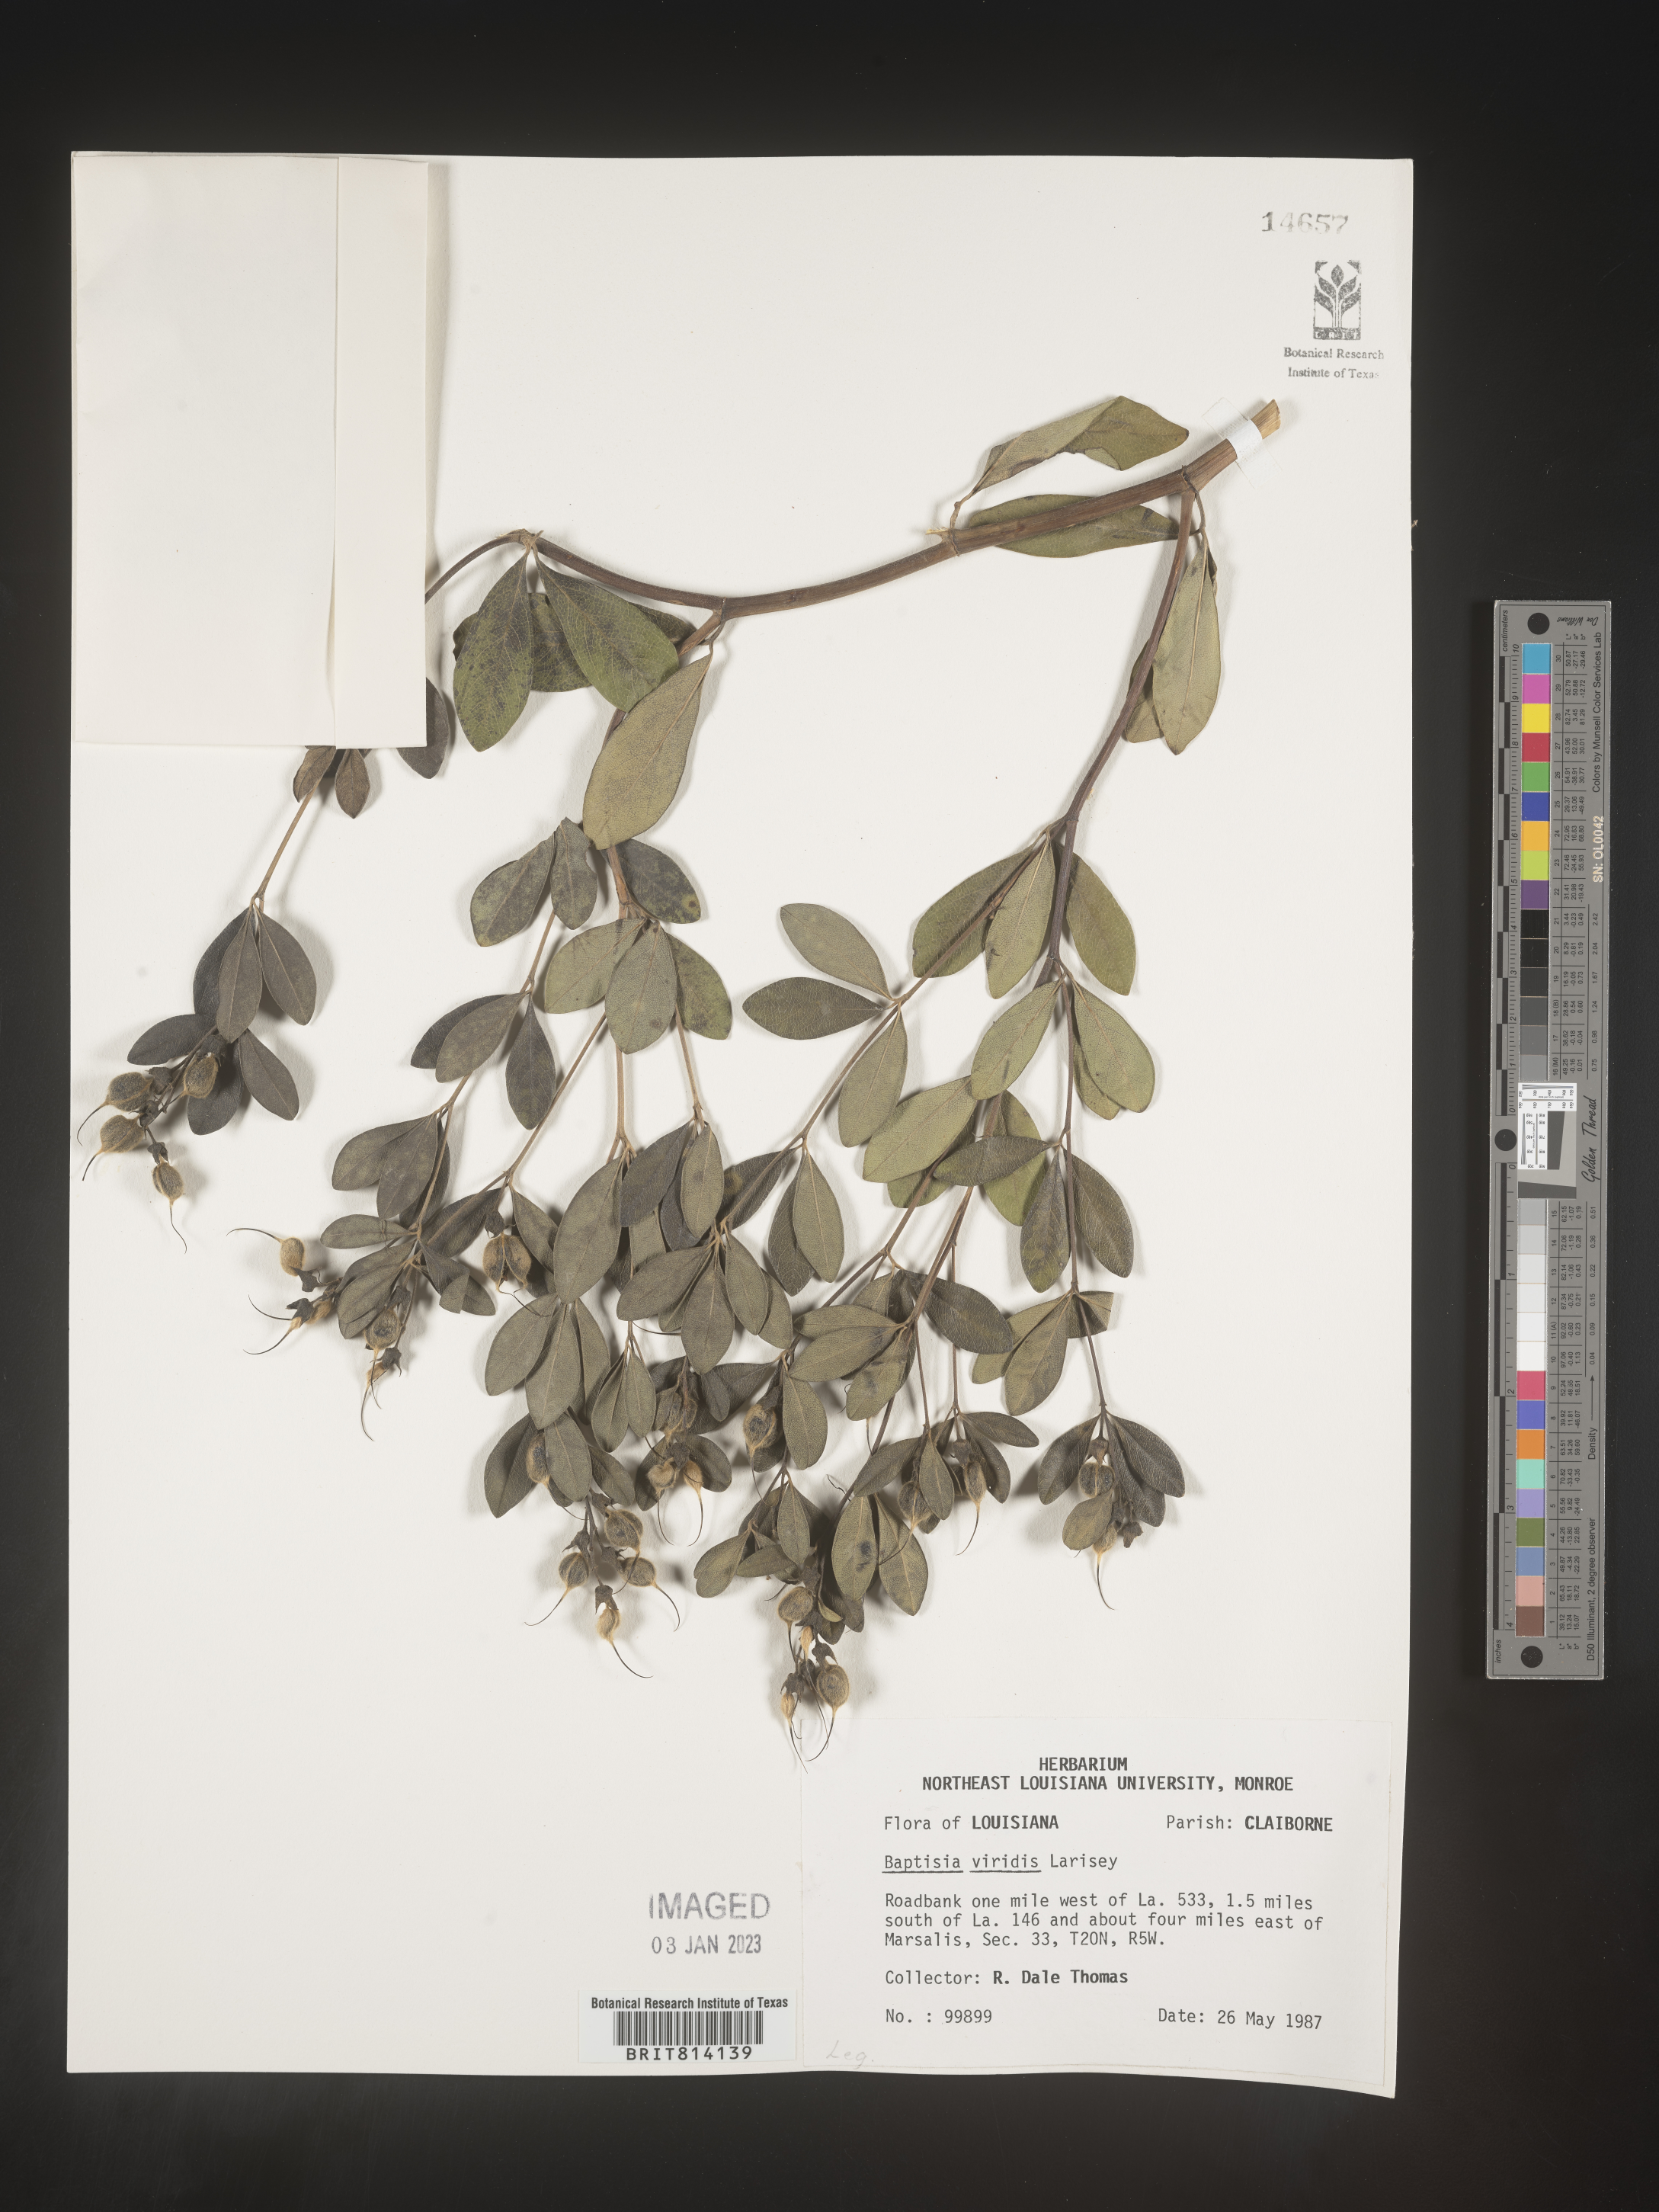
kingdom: Plantae
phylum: Tracheophyta
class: Magnoliopsida
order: Fabales
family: Fabaceae
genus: Baptisia
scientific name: Baptisia sphaerocarpa
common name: Round wild indigo
